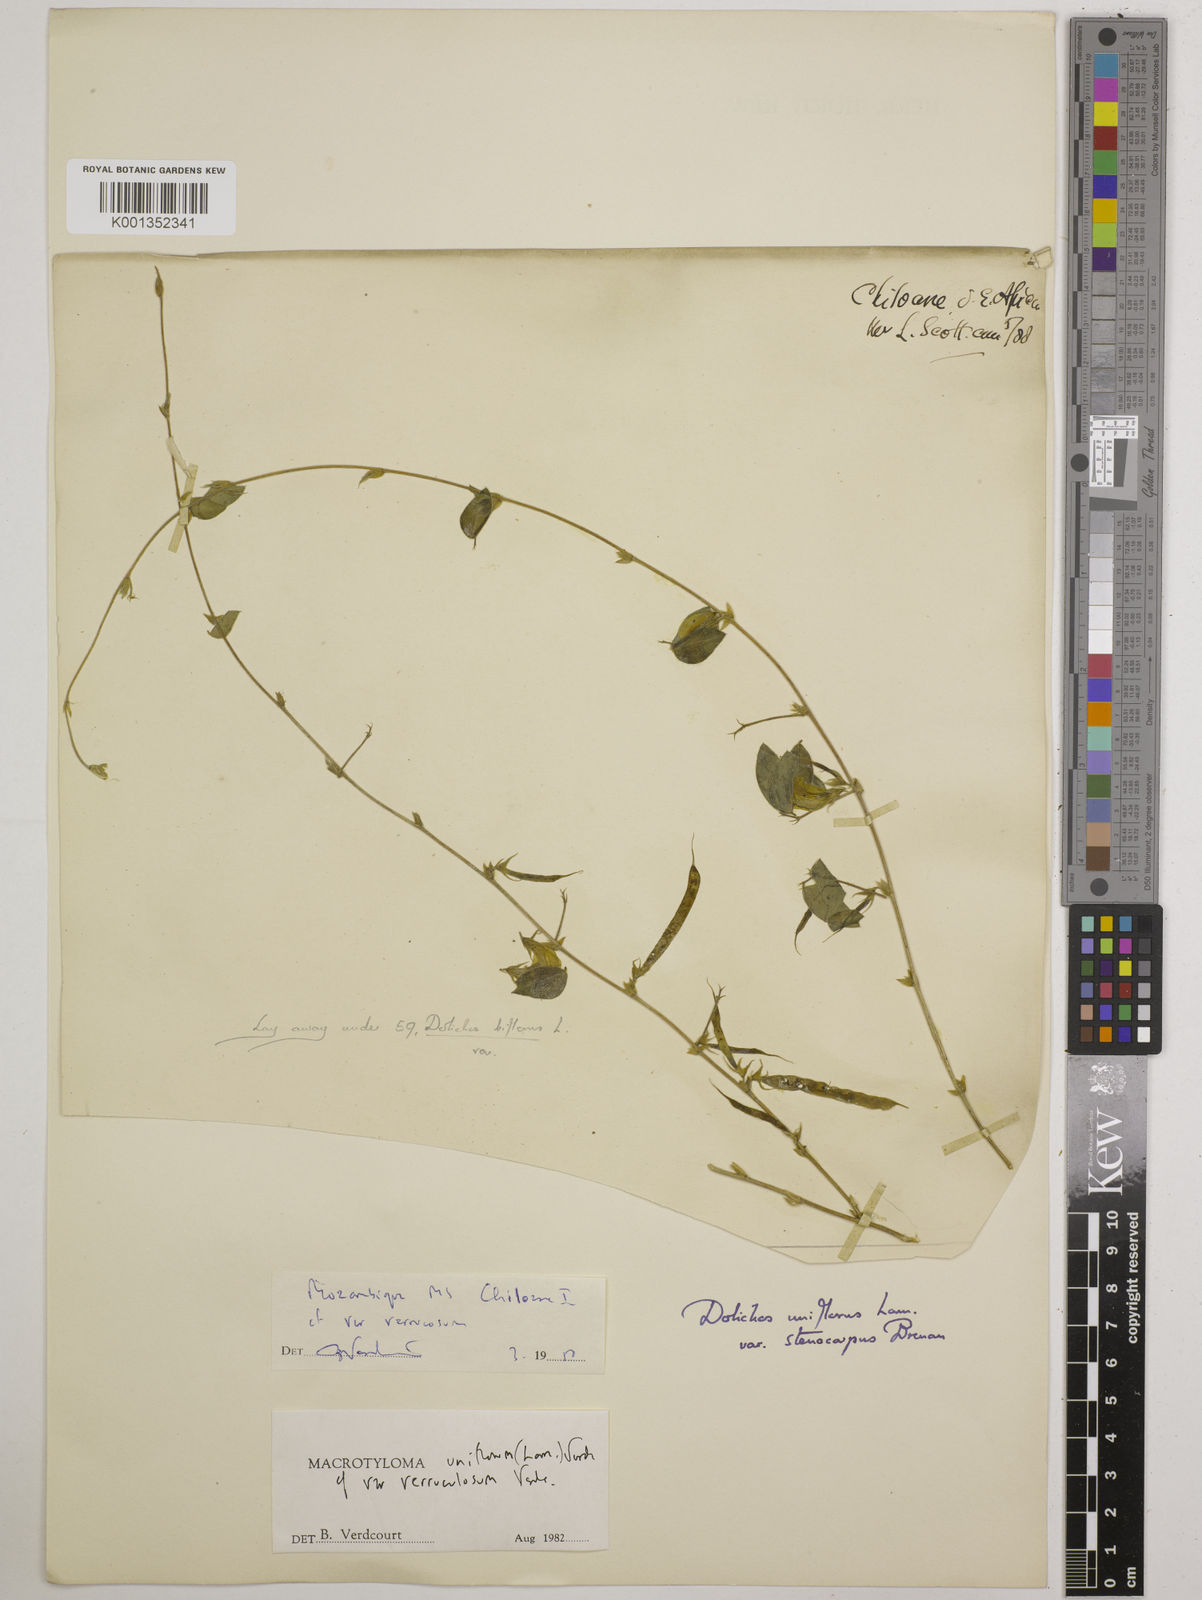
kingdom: Plantae
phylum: Tracheophyta
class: Magnoliopsida
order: Fabales
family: Fabaceae
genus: Macrotyloma
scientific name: Macrotyloma
